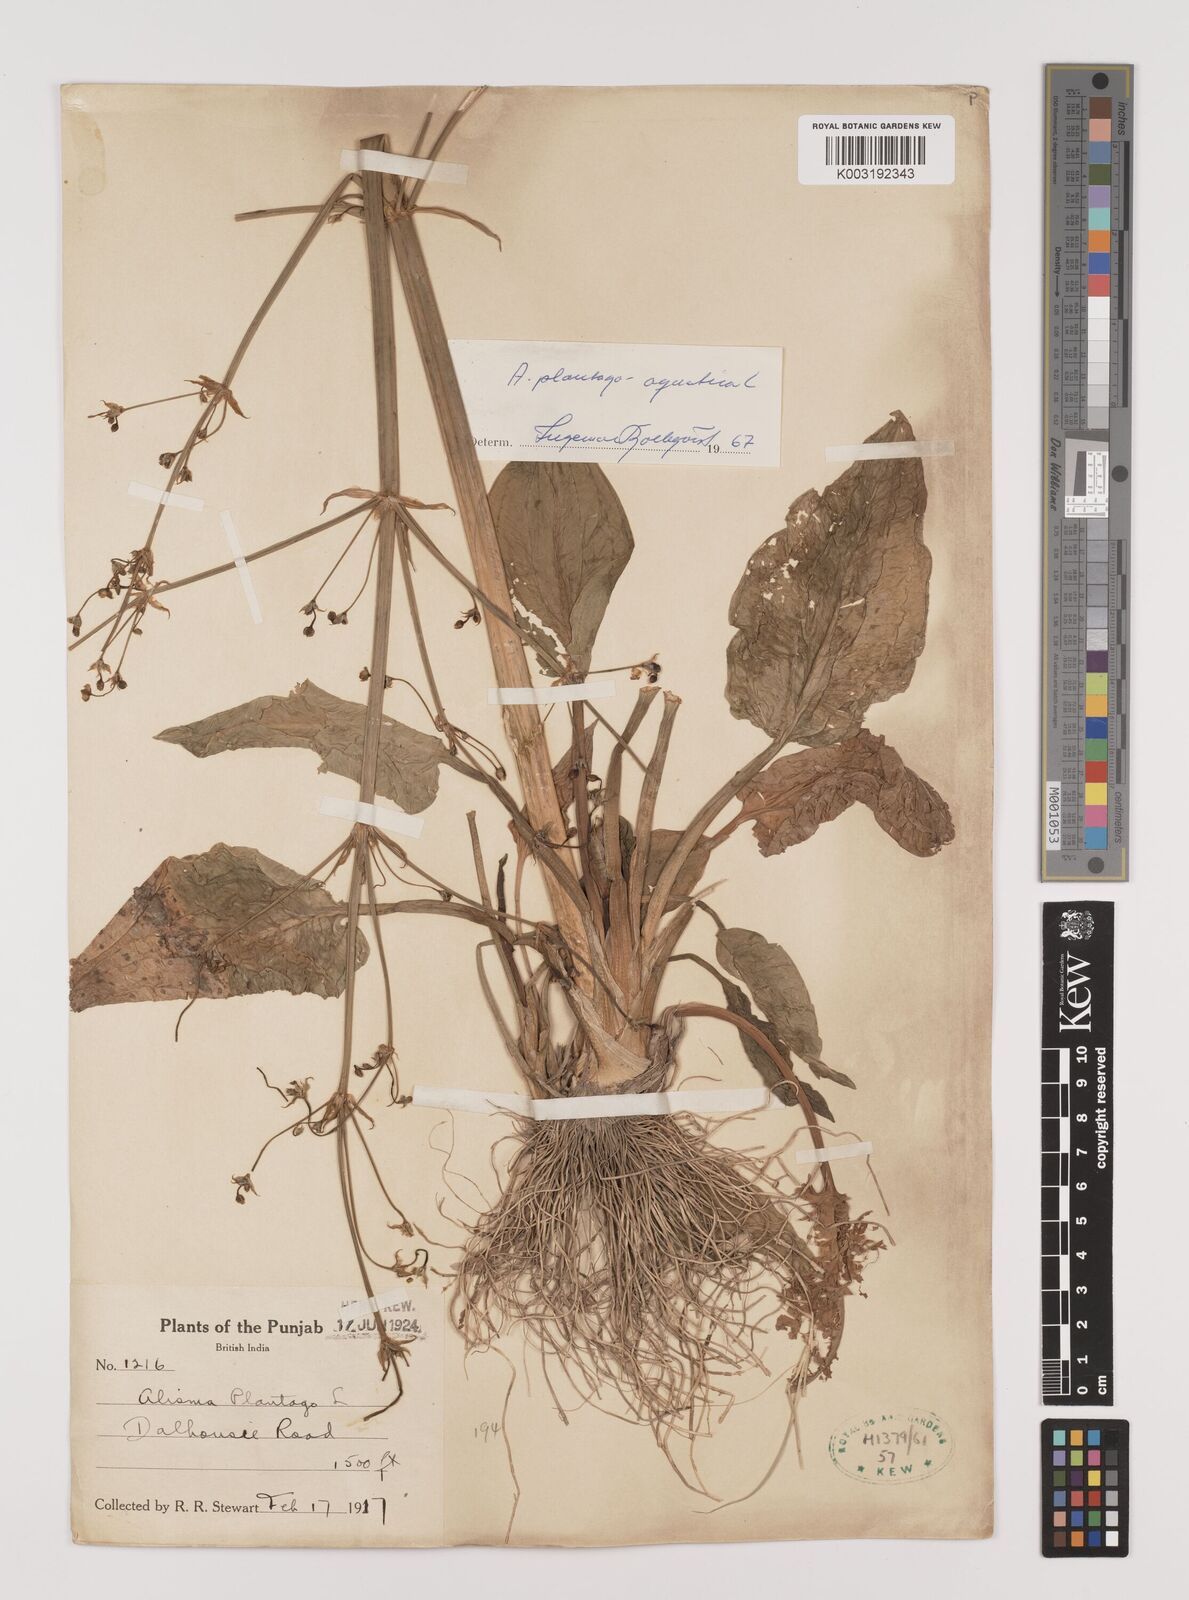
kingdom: Plantae
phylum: Tracheophyta
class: Liliopsida
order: Alismatales
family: Alismataceae
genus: Alisma
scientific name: Alisma plantago-aquatica
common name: Water-plantain
